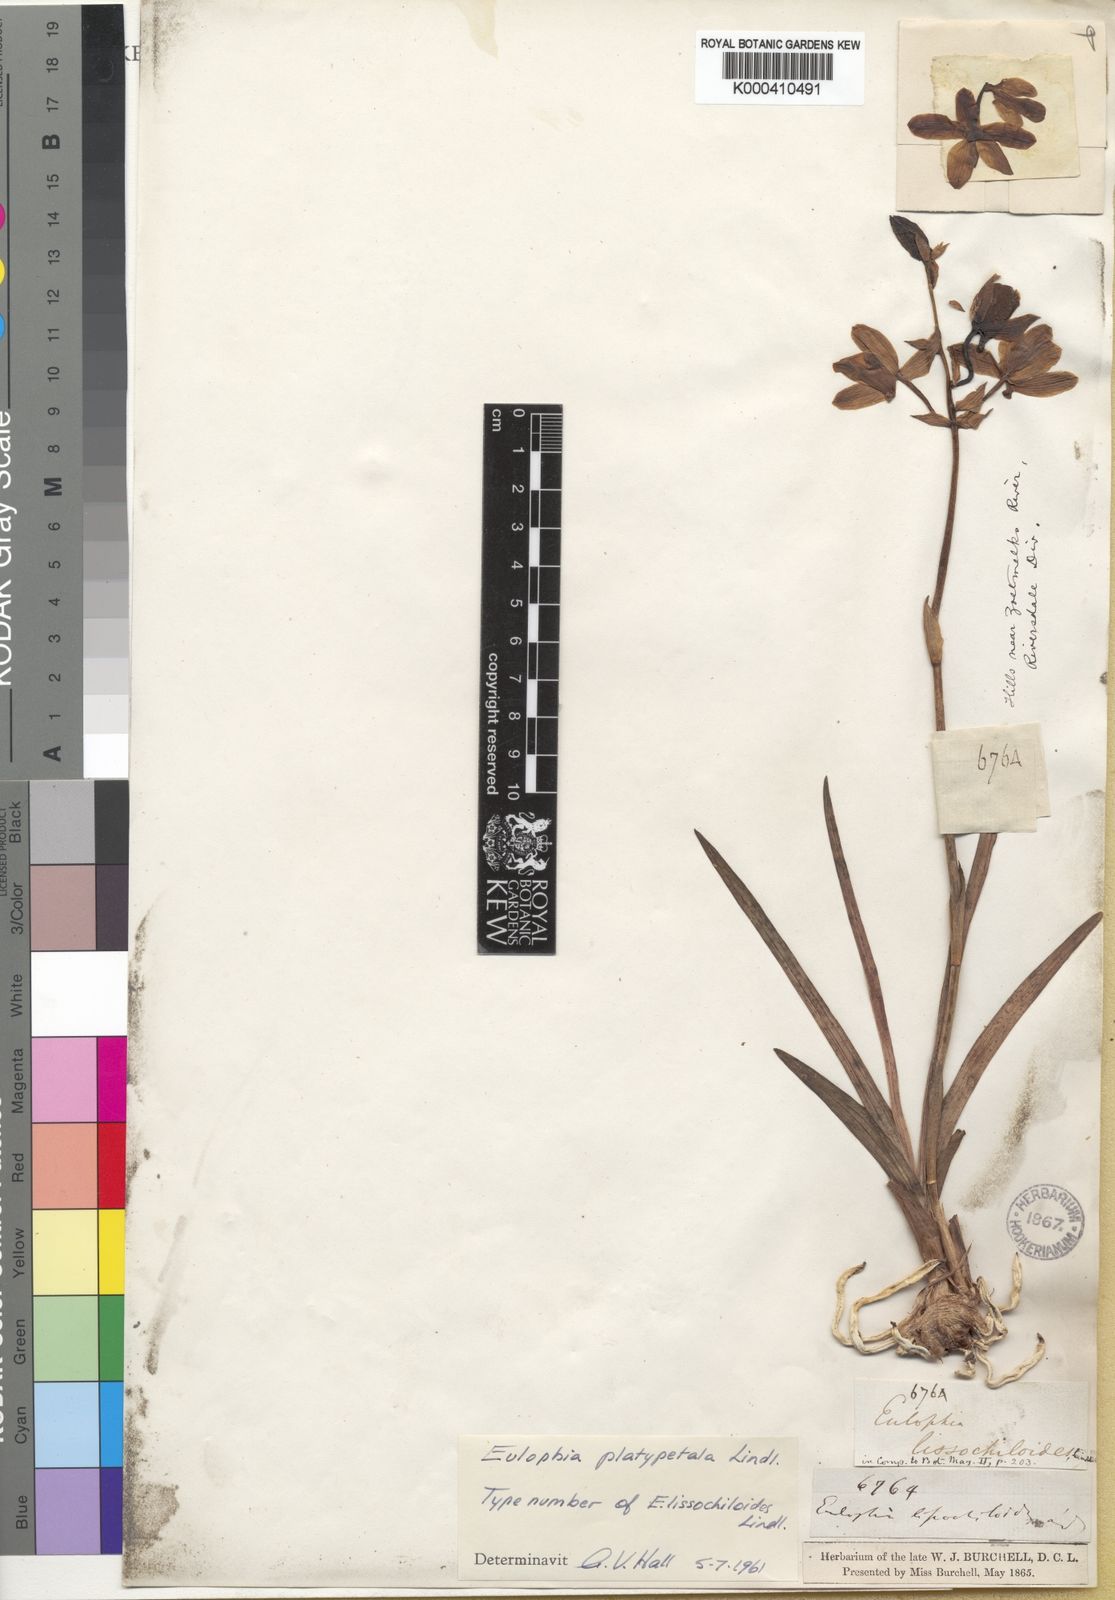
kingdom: Plantae
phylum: Tracheophyta
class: Liliopsida
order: Asparagales
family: Orchidaceae
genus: Eulophia
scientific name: Eulophia platypetala
